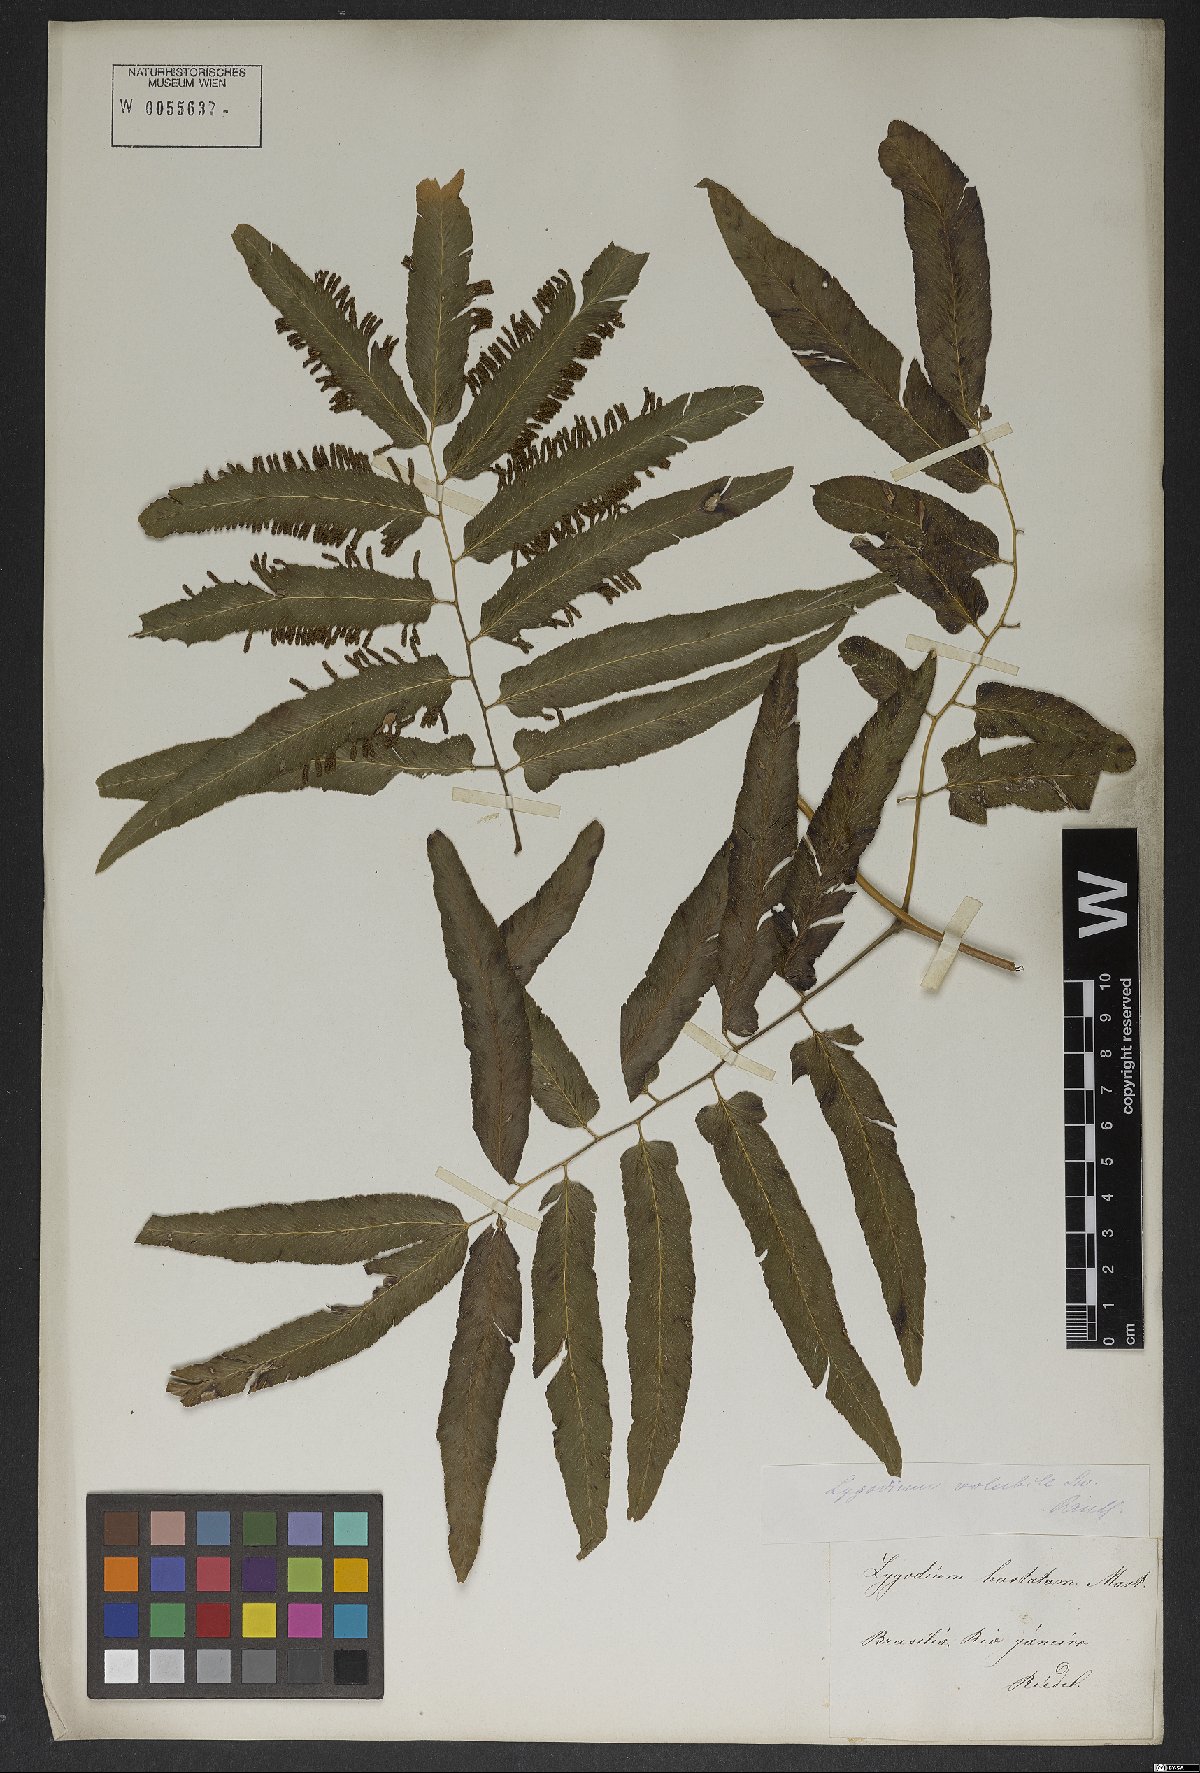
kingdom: Plantae
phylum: Tracheophyta
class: Polypodiopsida
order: Schizaeales
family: Lygodiaceae
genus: Lygodium
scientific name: Lygodium volubile
